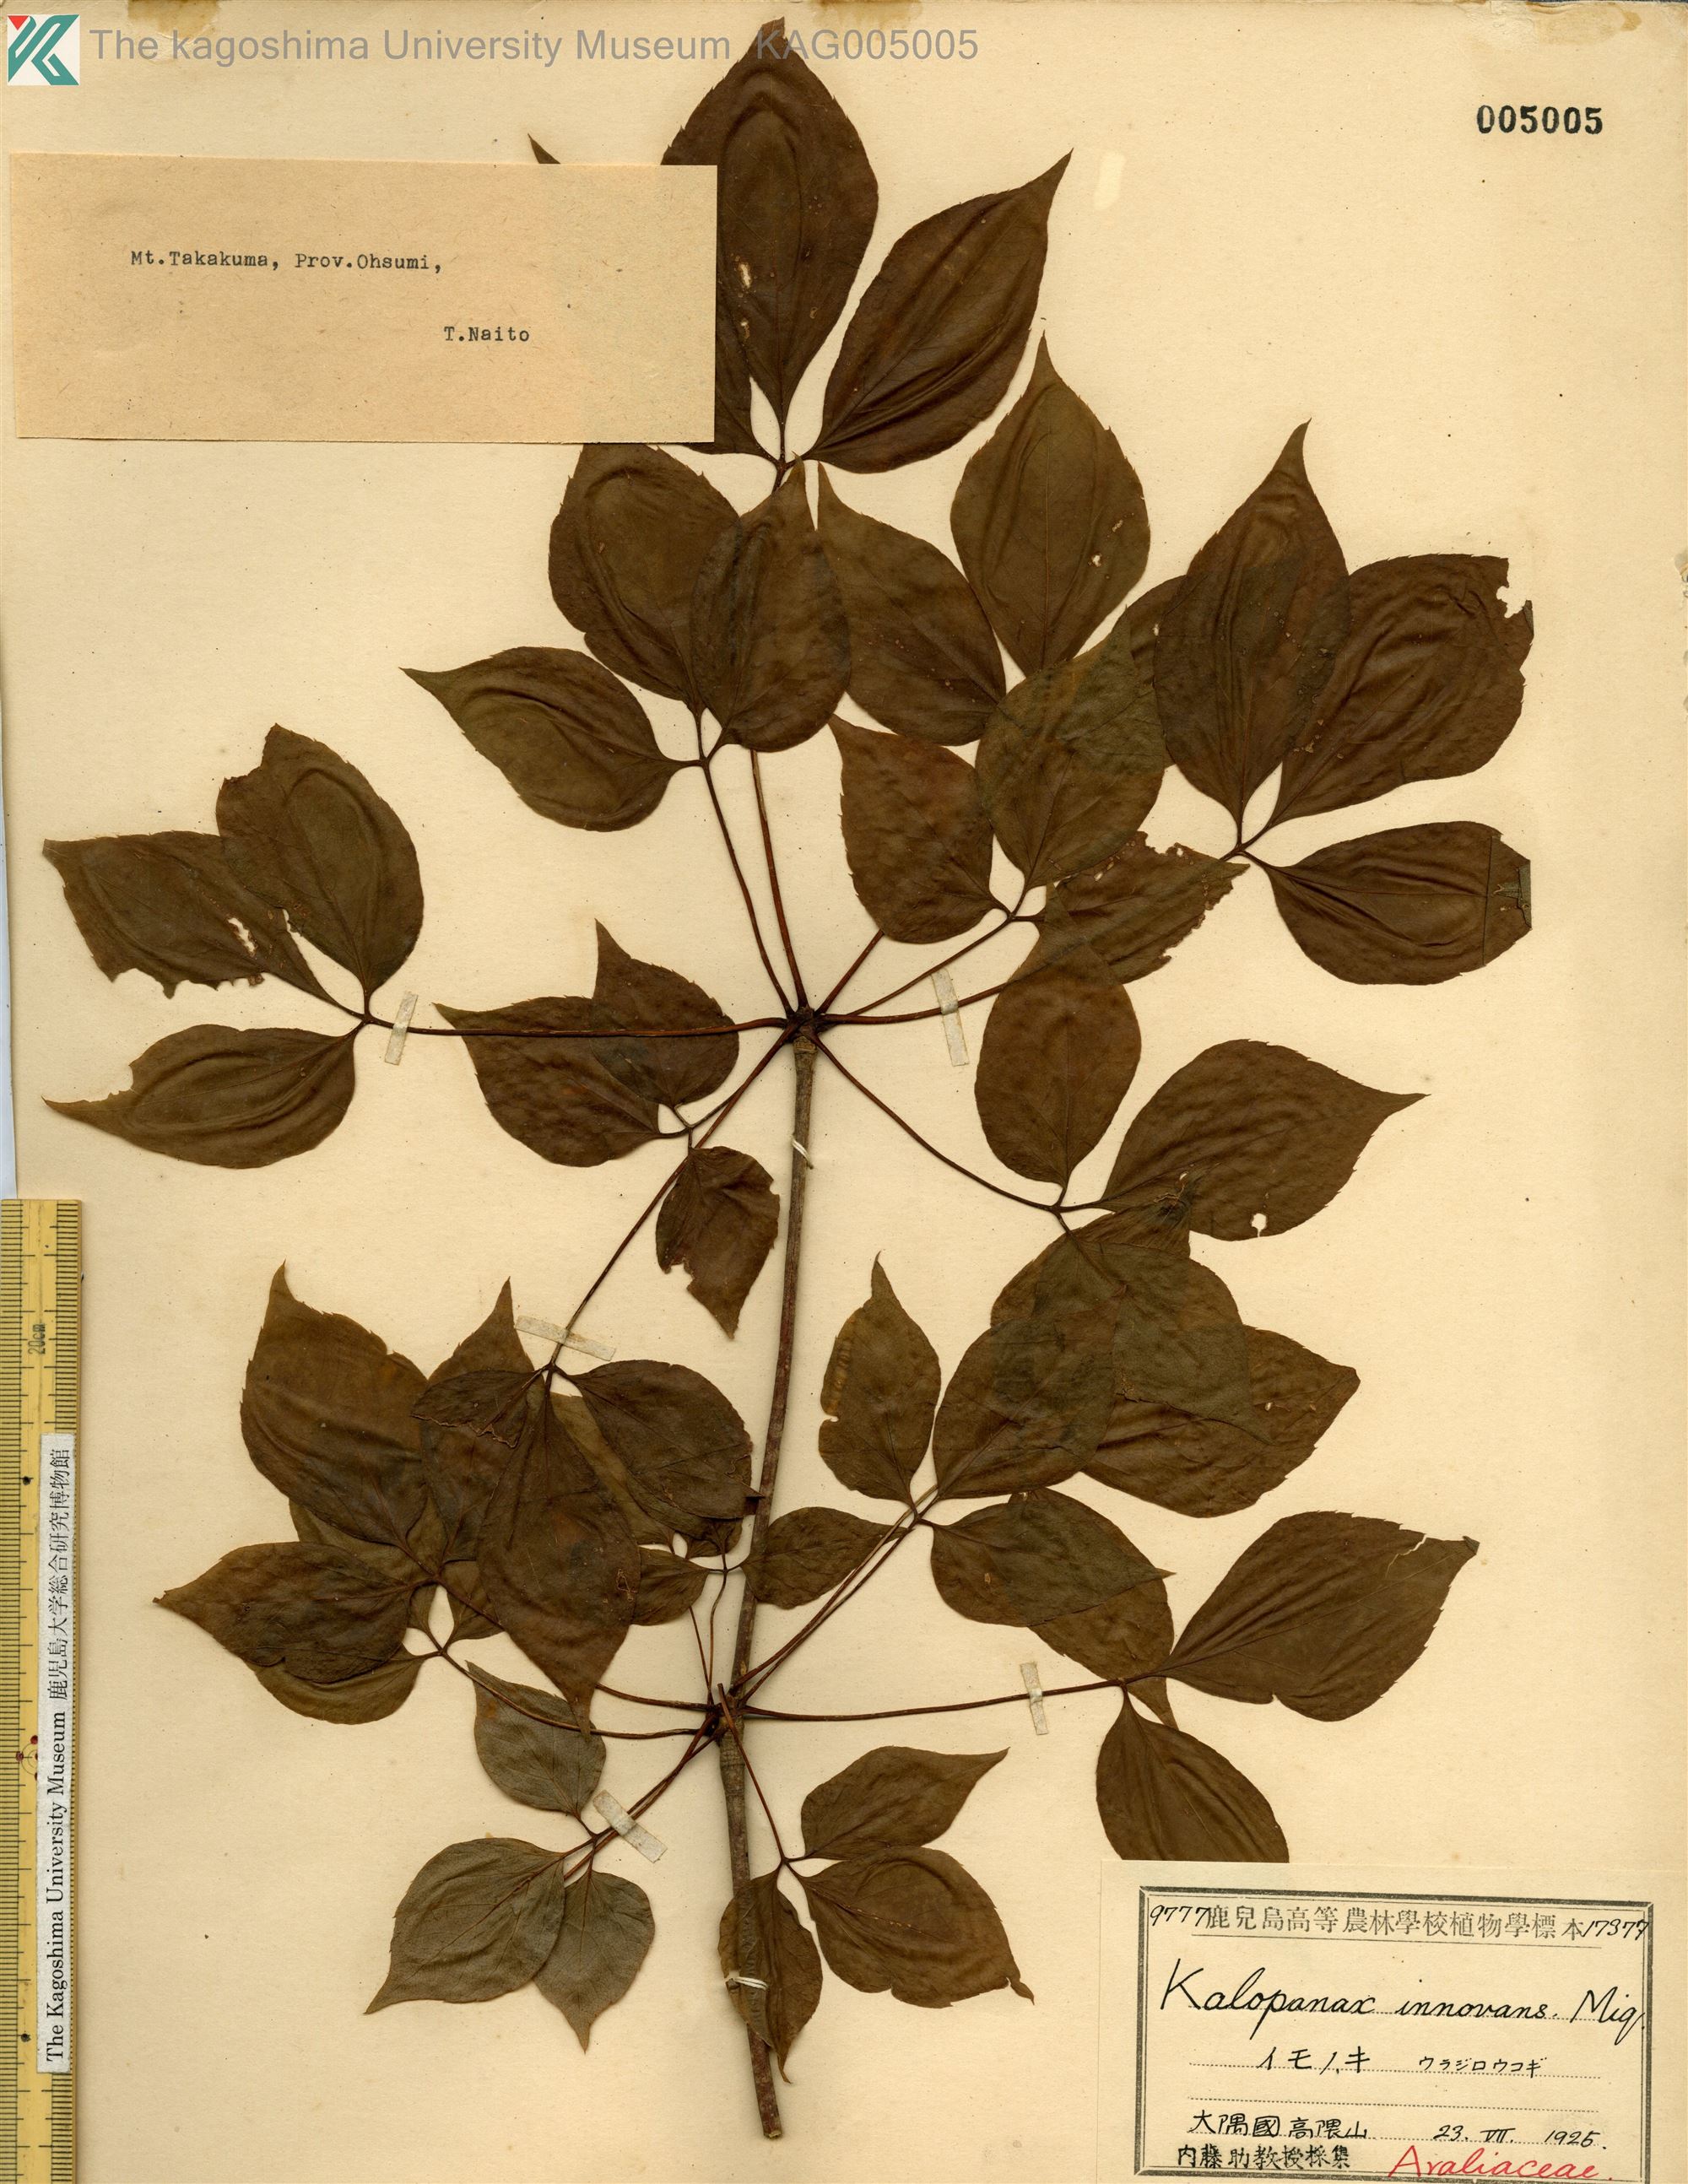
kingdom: Plantae
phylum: Tracheophyta
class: Magnoliopsida
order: Apiales
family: Araliaceae
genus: Gamblea
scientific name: Gamblea innovans
